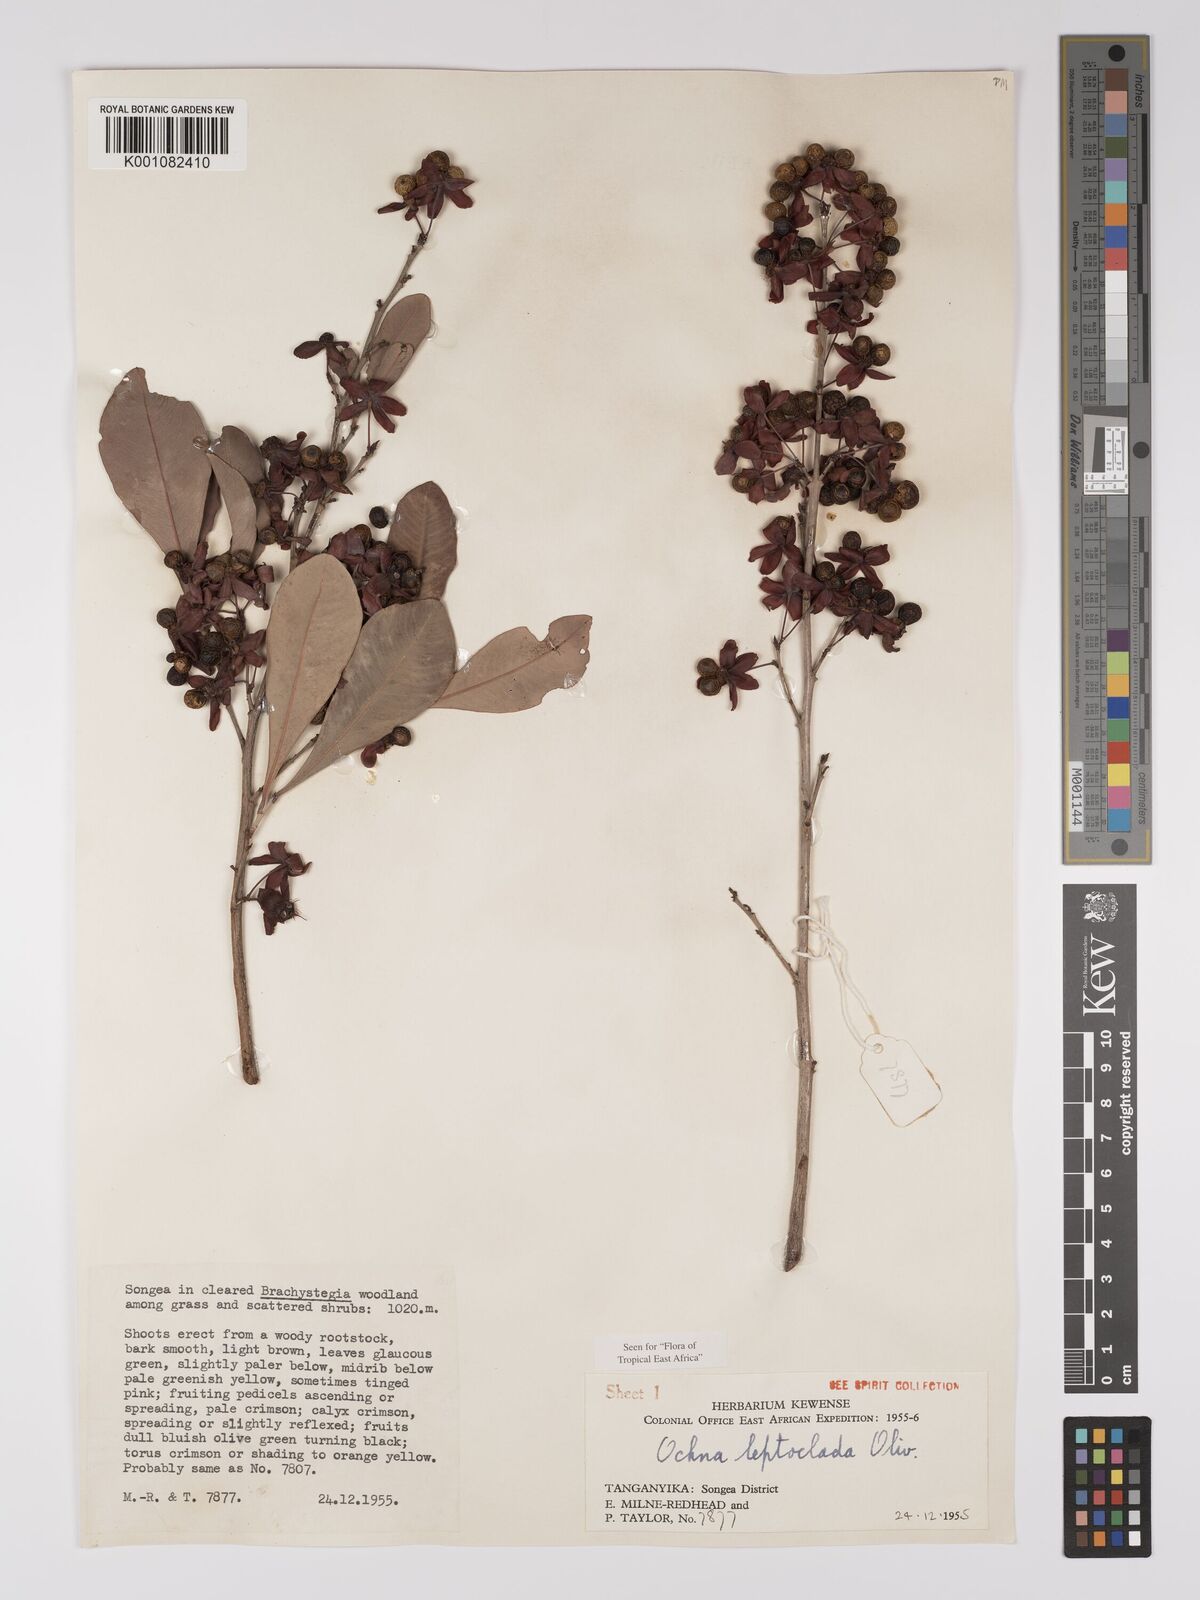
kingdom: Plantae
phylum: Tracheophyta
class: Magnoliopsida
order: Malpighiales
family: Ochnaceae
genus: Ochna
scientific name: Ochna leptoclada
